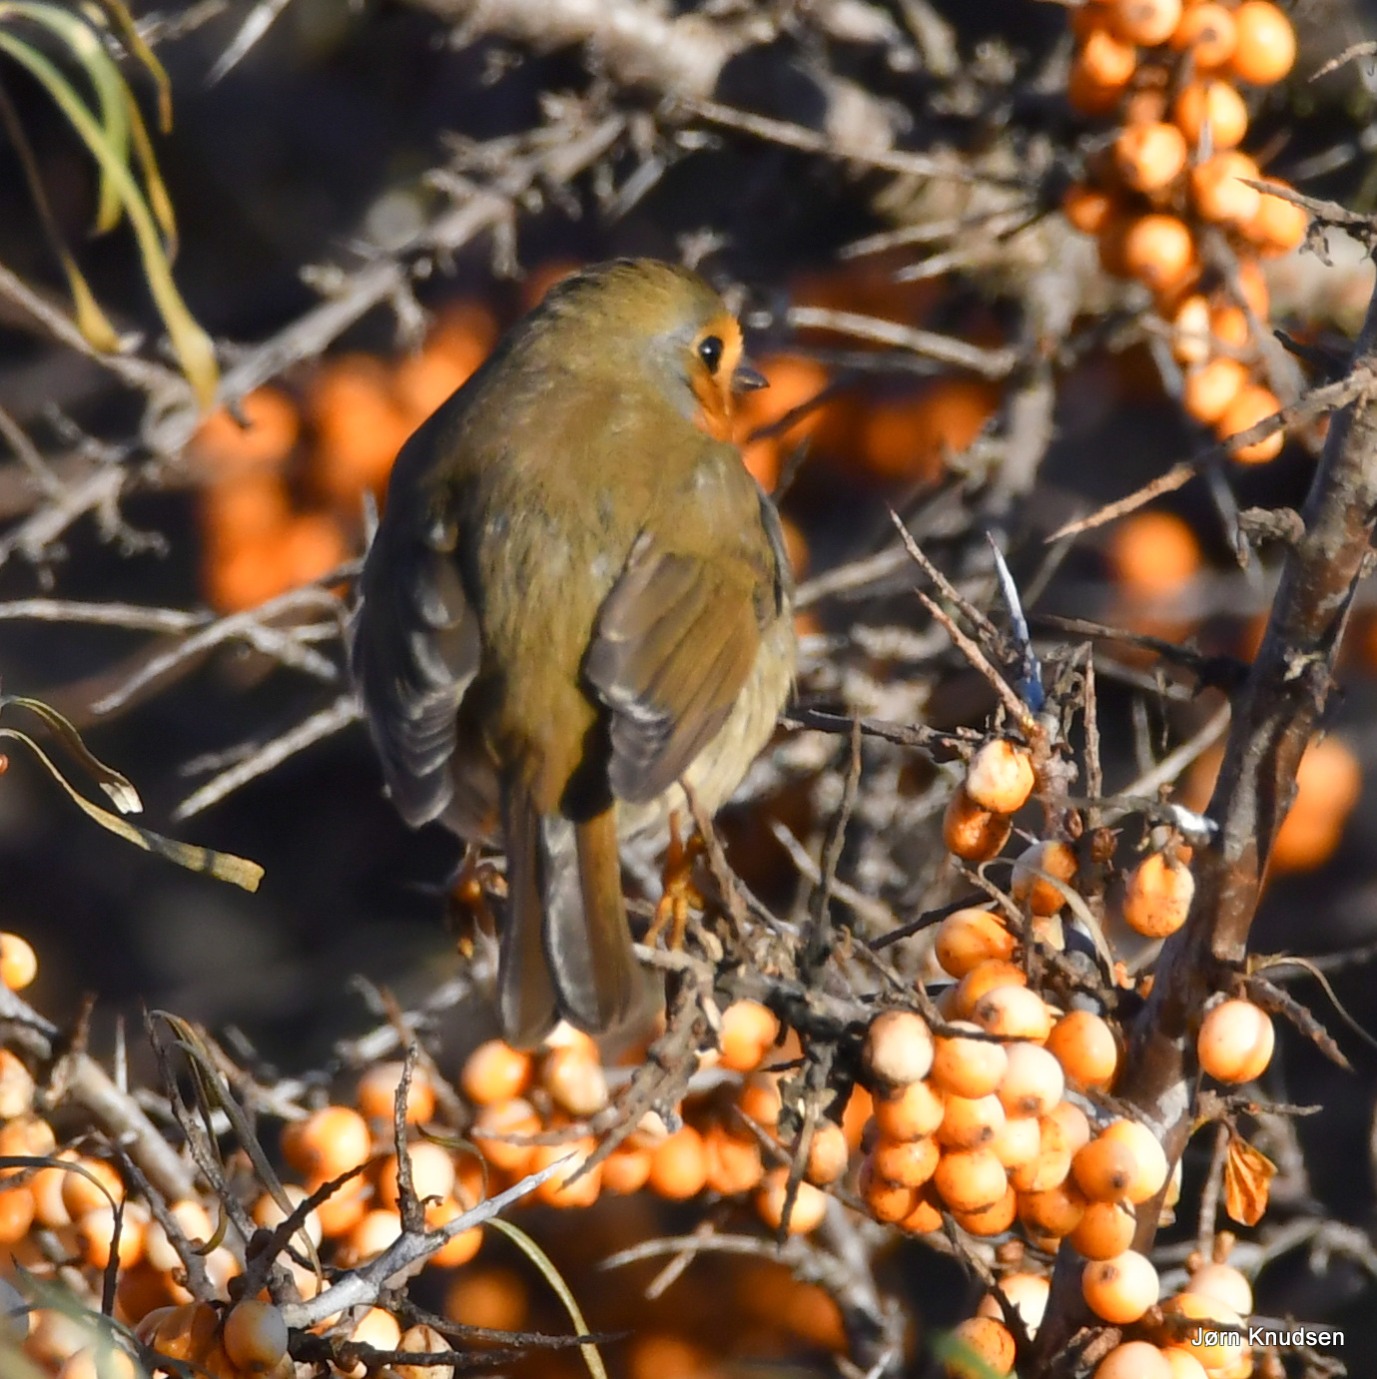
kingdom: Animalia
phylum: Chordata
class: Aves
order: Passeriformes
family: Muscicapidae
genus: Erithacus
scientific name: Erithacus rubecula
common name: Rødhals/rødkælk
